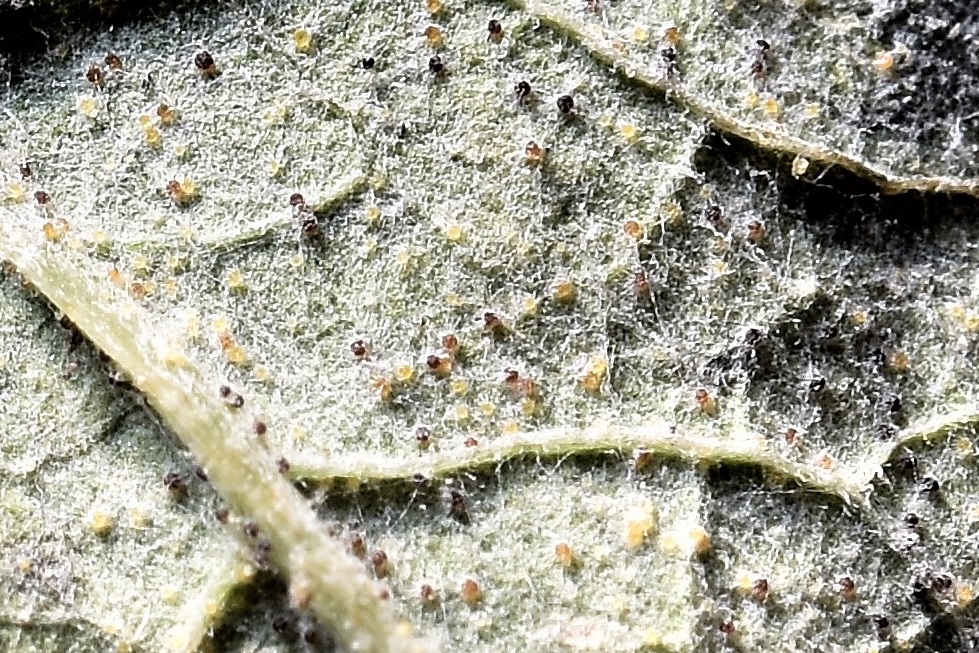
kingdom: Fungi
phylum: Ascomycota
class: Leotiomycetes
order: Helotiales
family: Erysiphaceae
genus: Golovinomyces
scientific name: Golovinomyces depressus
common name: Burdock mildew
